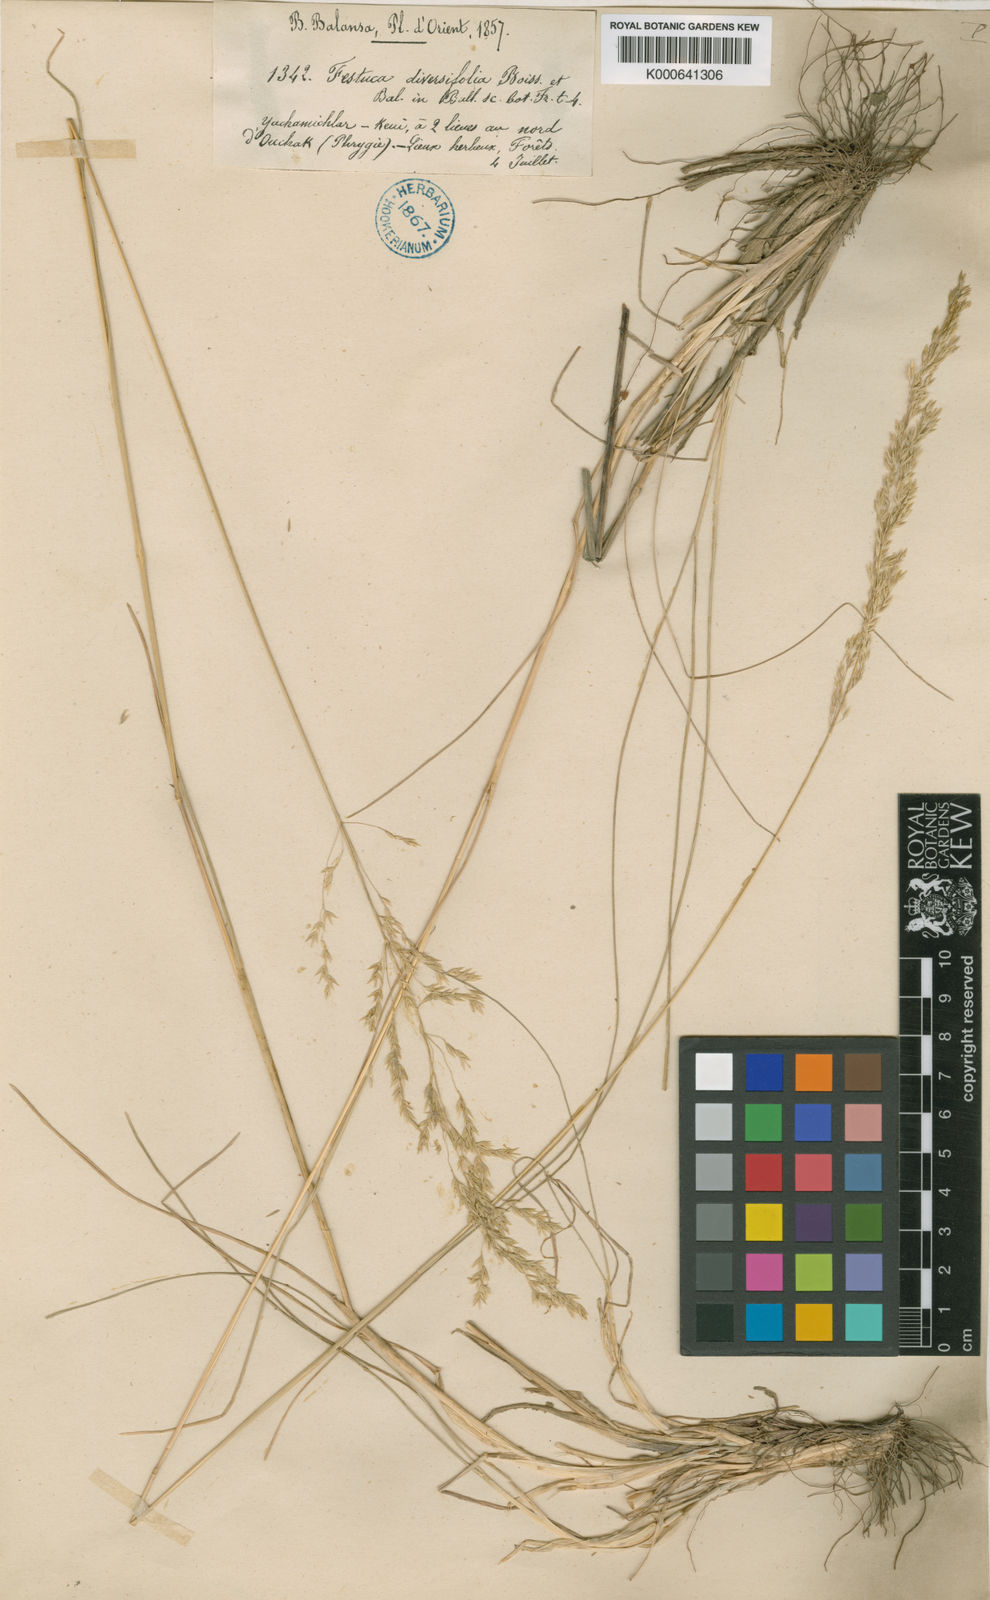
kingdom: Plantae
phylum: Tracheophyta
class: Liliopsida
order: Poales
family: Poaceae
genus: Poa
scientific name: Poa diversifolia
